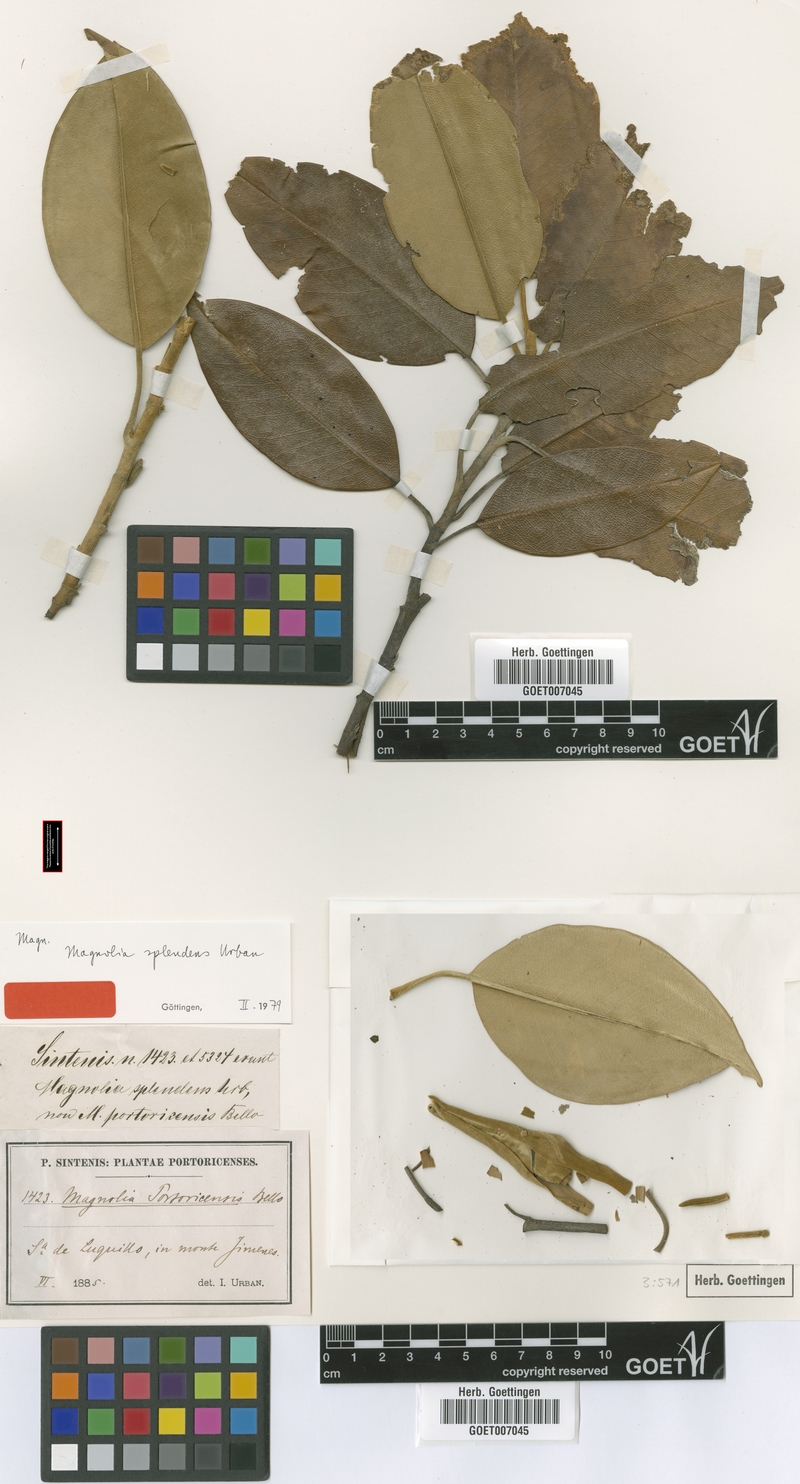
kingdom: Plantae
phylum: Tracheophyta
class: Magnoliopsida
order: Magnoliales
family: Magnoliaceae
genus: Magnolia
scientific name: Magnolia splendens
